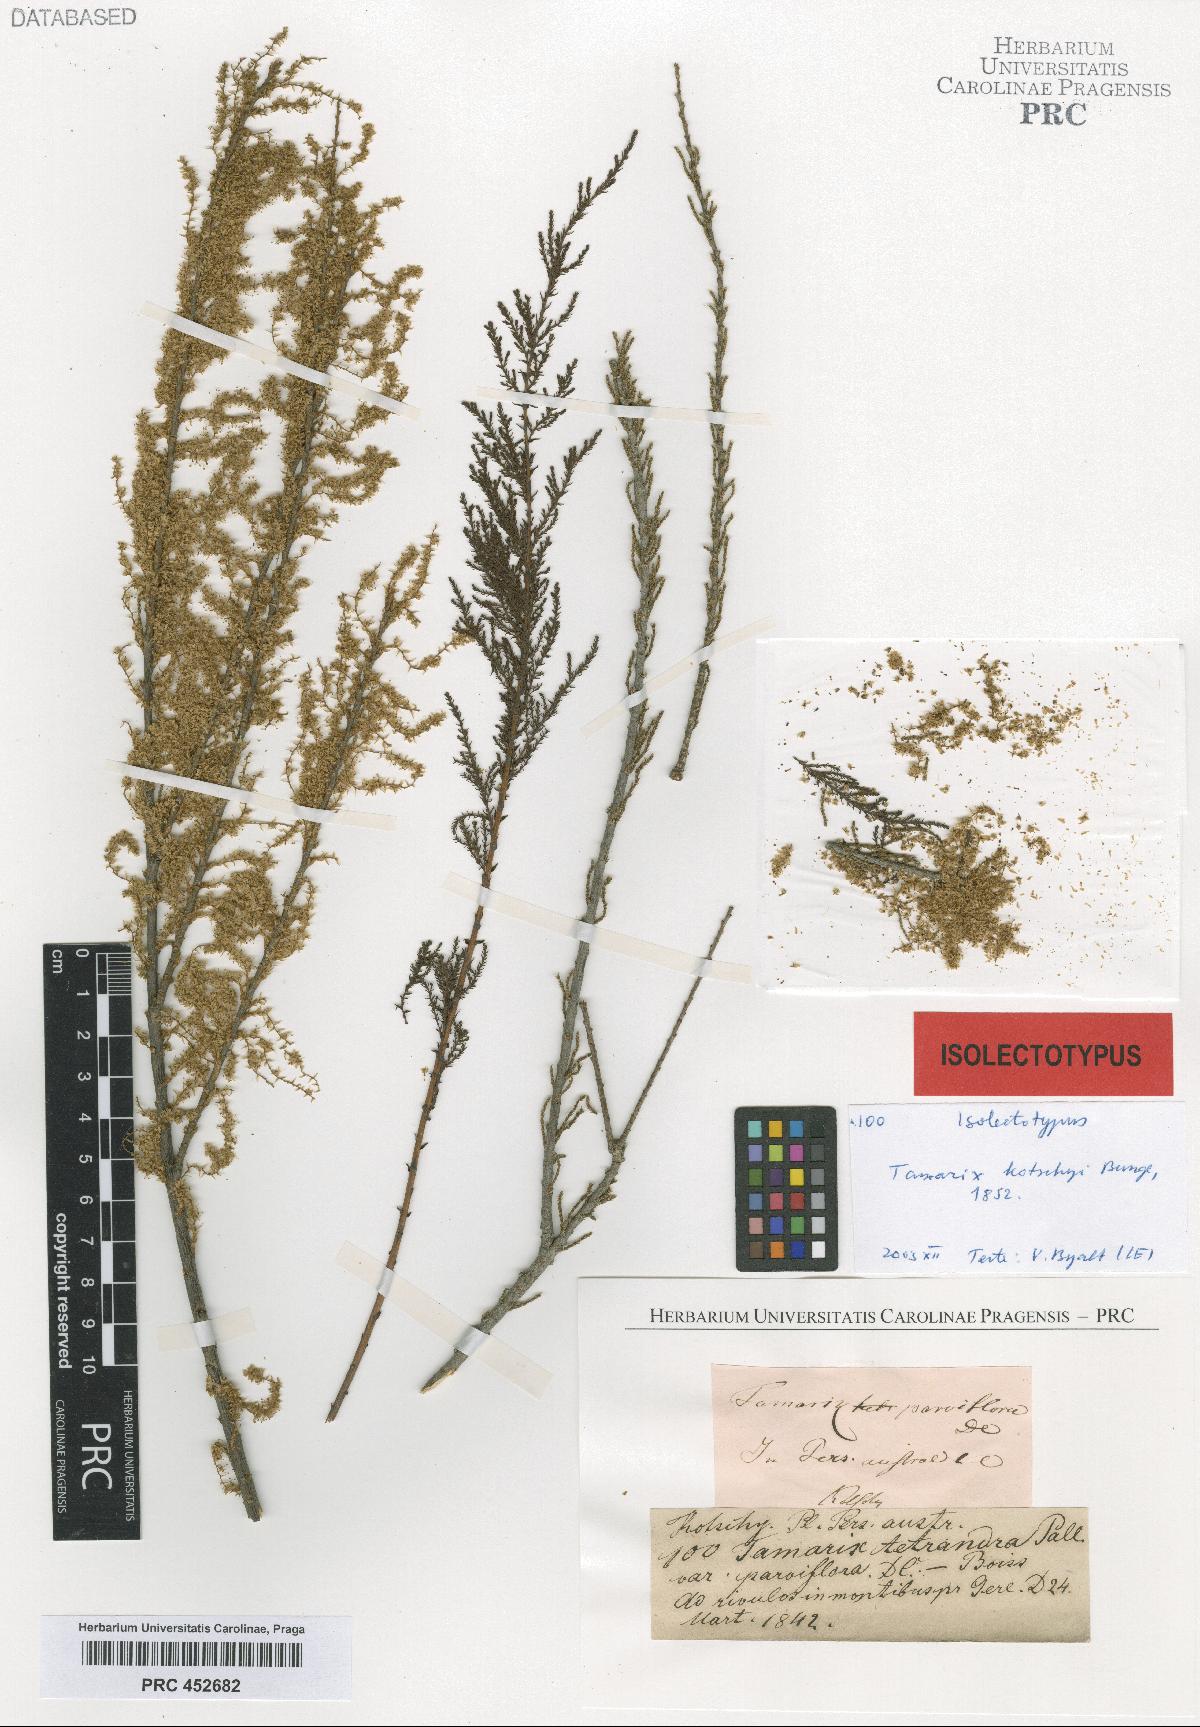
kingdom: Plantae
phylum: Tracheophyta
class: Magnoliopsida
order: Caryophyllales
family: Tamaricaceae
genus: Tamarix
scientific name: Tamarix kotschyi
